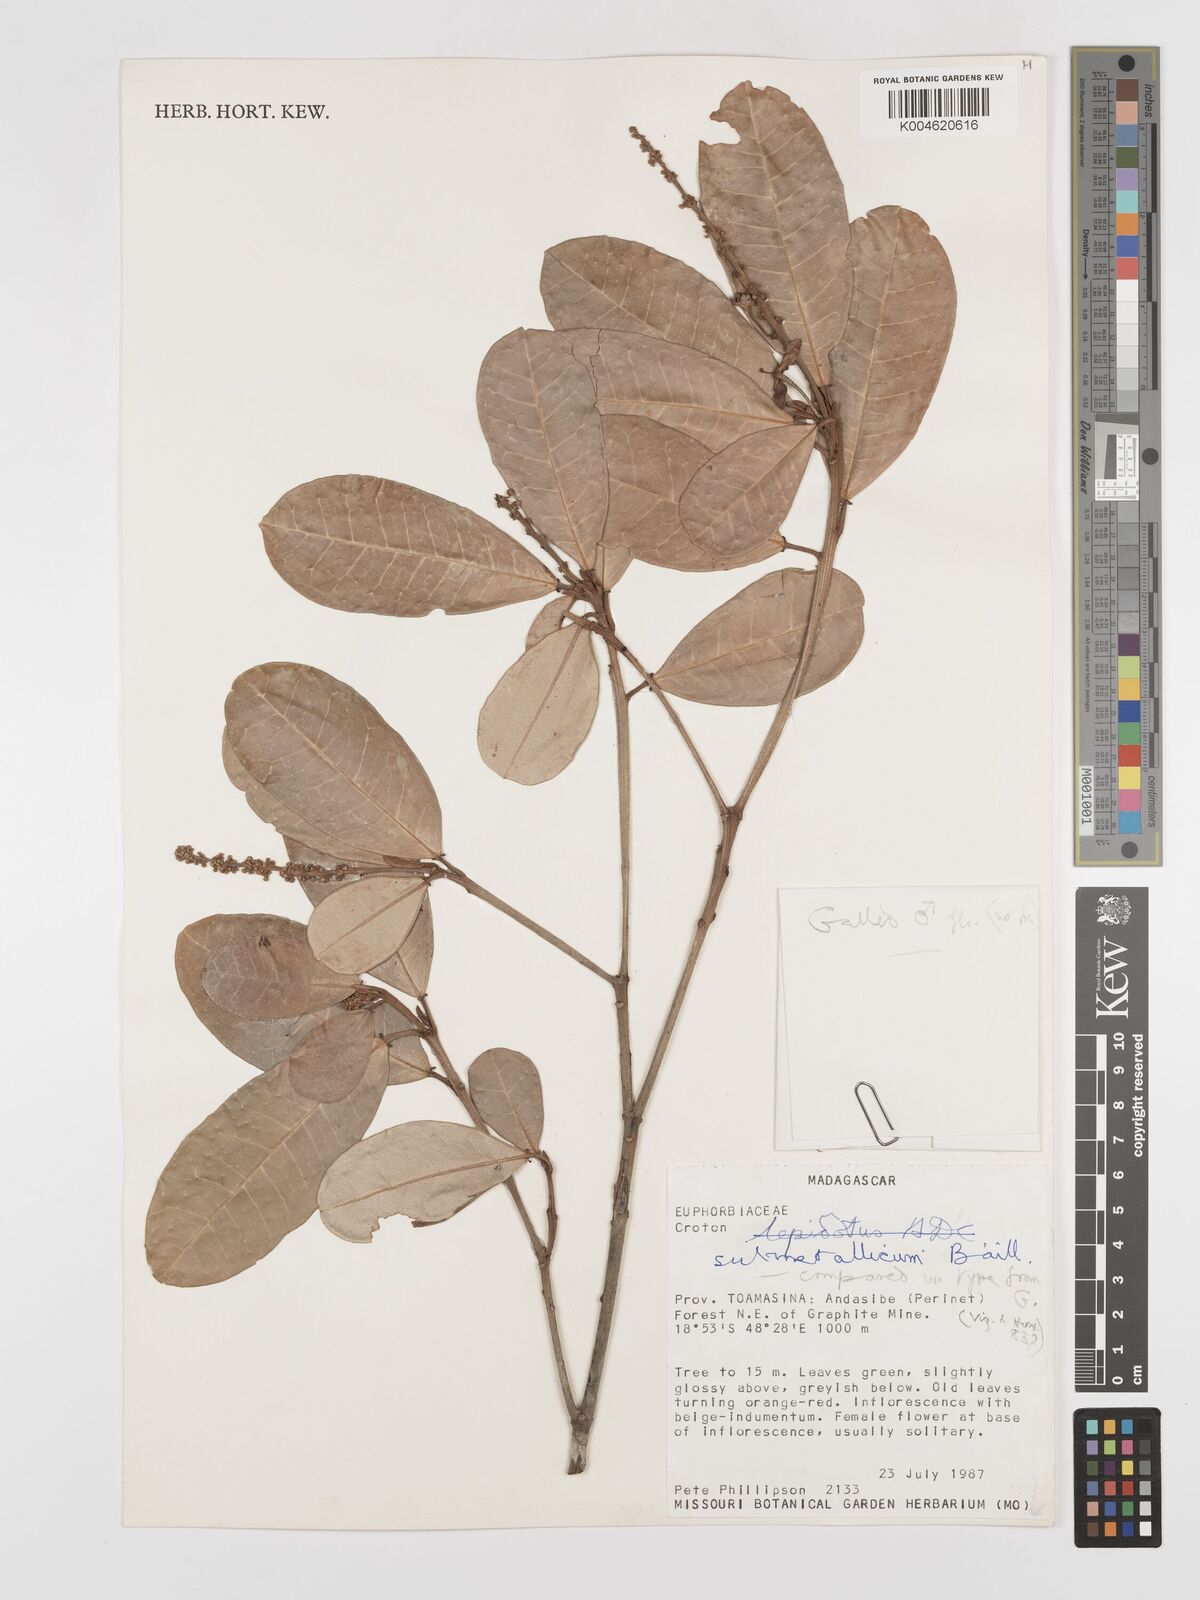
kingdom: Plantae
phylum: Tracheophyta
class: Magnoliopsida
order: Malpighiales
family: Euphorbiaceae
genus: Croton
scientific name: Croton submetallicus
